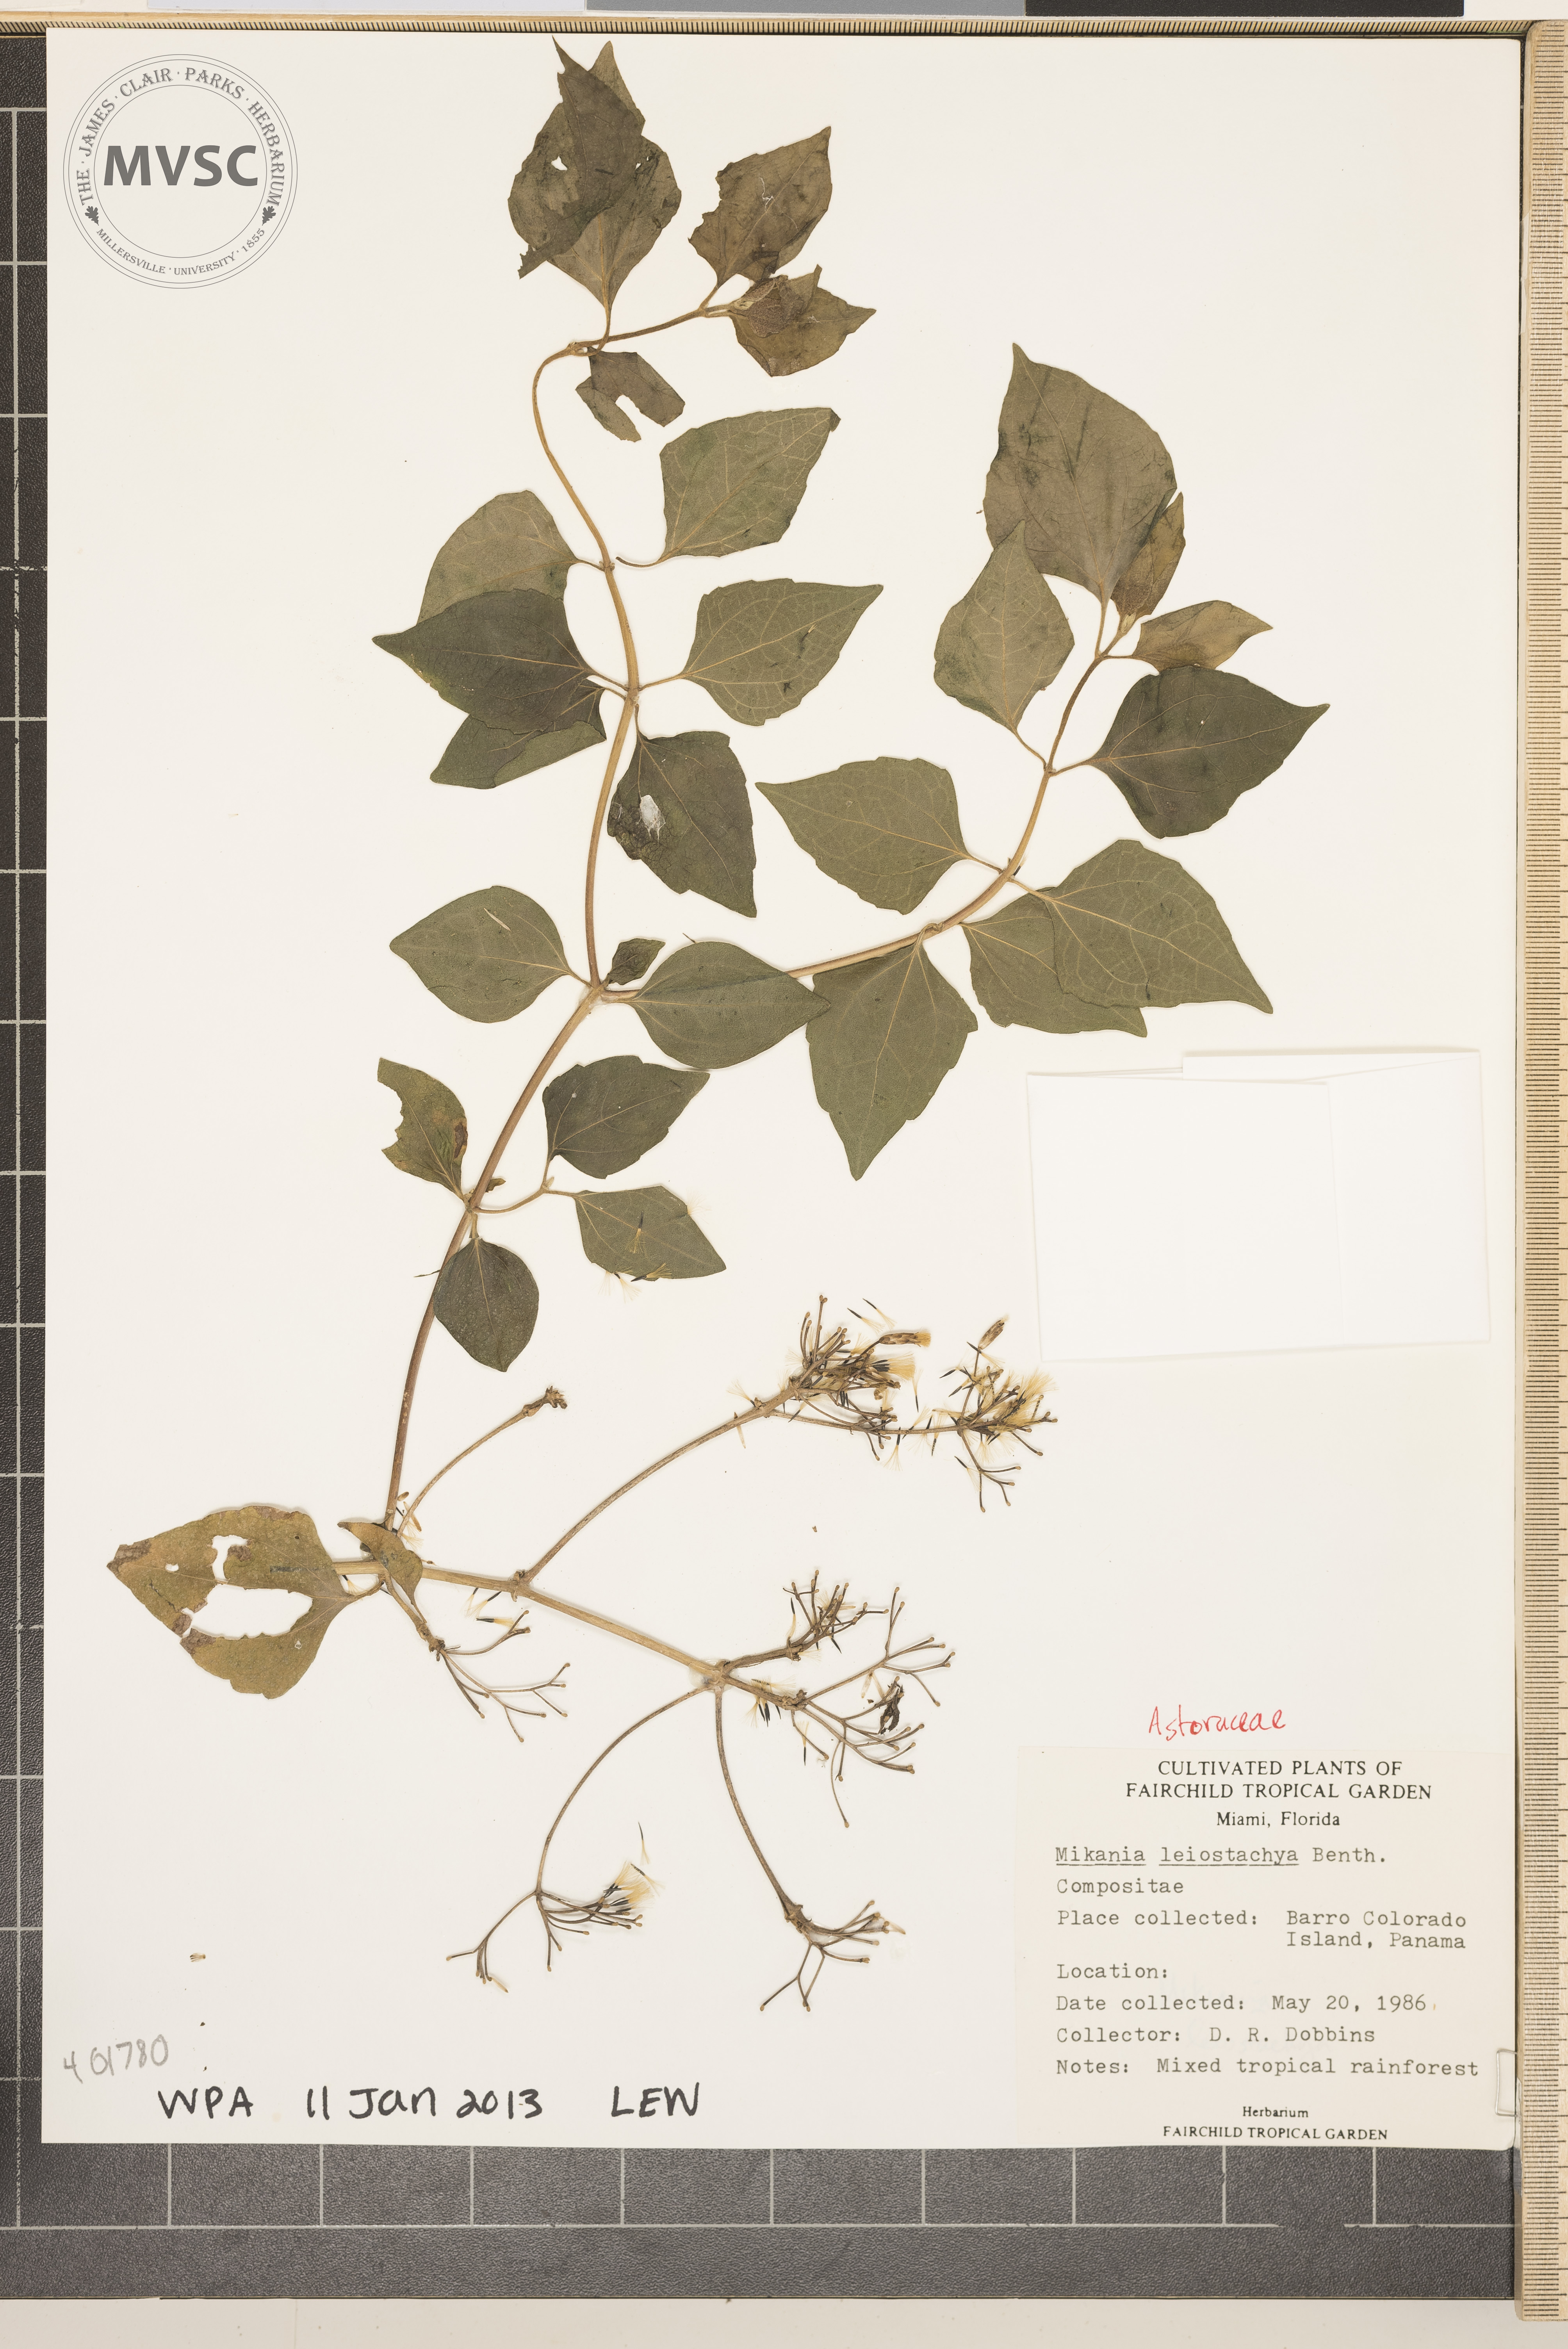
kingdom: Plantae
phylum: Tracheophyta
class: Magnoliopsida
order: Asterales
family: Asteraceae
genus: Mikania
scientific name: Mikania leiostachya
